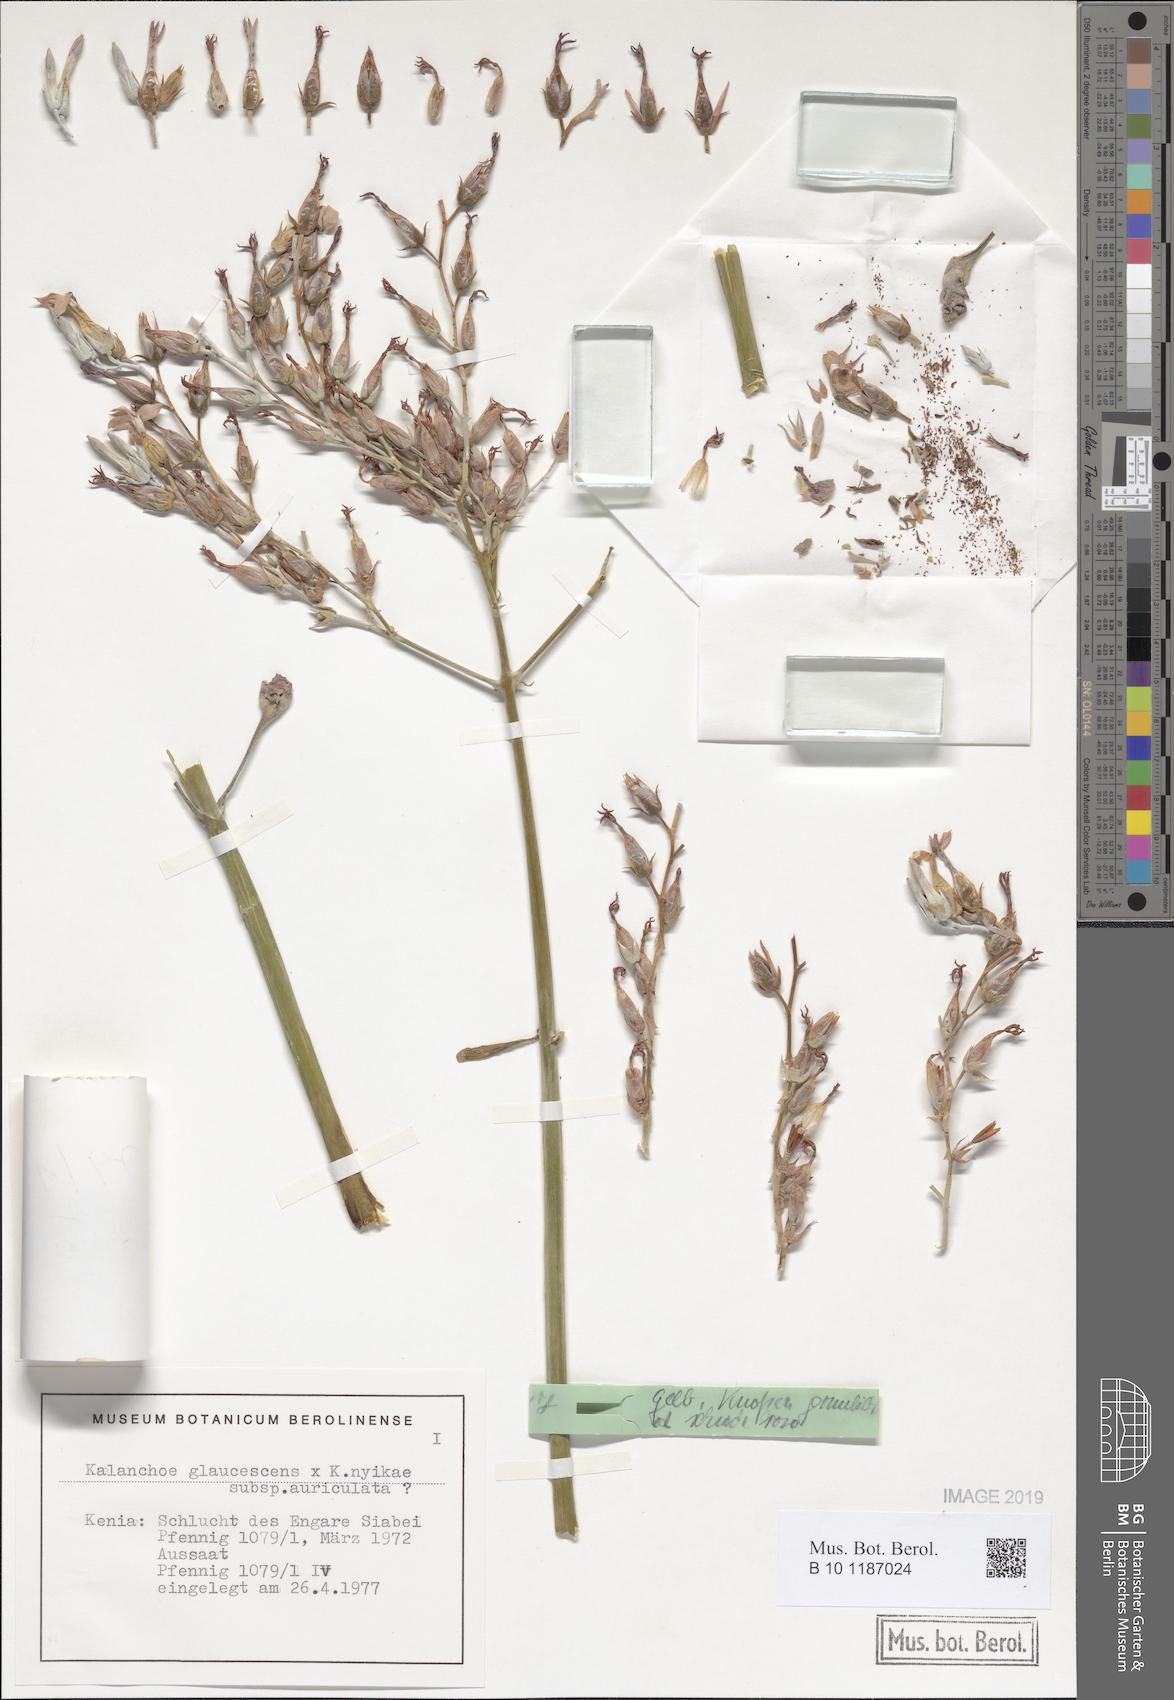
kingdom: Plantae
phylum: Tracheophyta
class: Magnoliopsida
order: Saxifragales
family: Crassulaceae
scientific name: Crassulaceae
